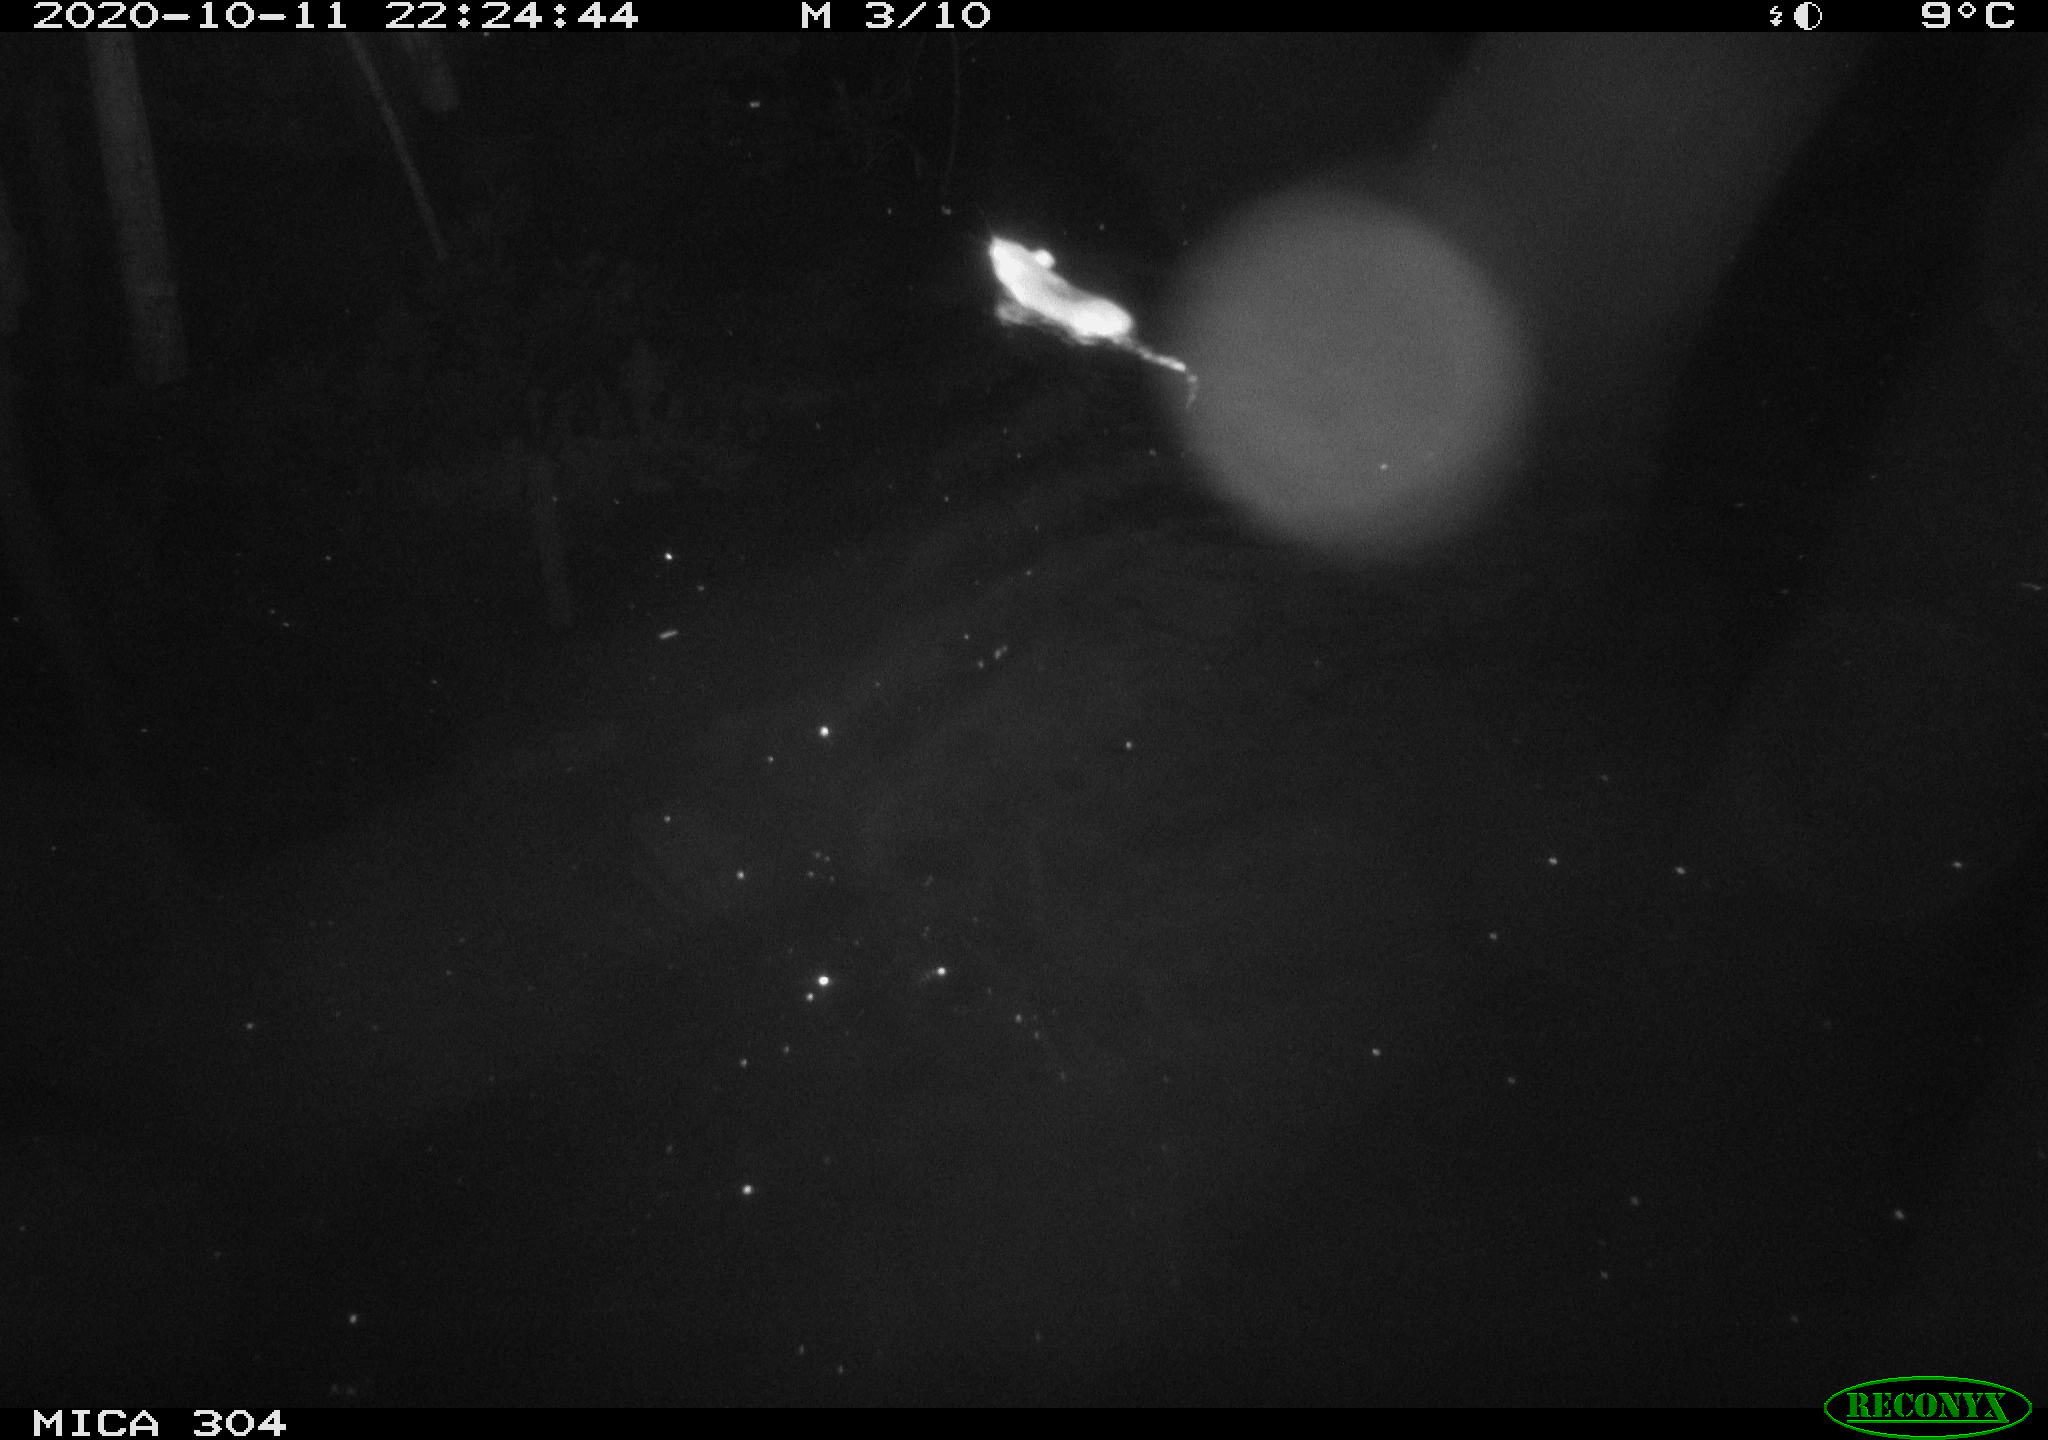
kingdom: Animalia
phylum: Chordata
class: Mammalia
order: Rodentia
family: Muridae
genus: Rattus
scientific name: Rattus norvegicus
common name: Brown rat
